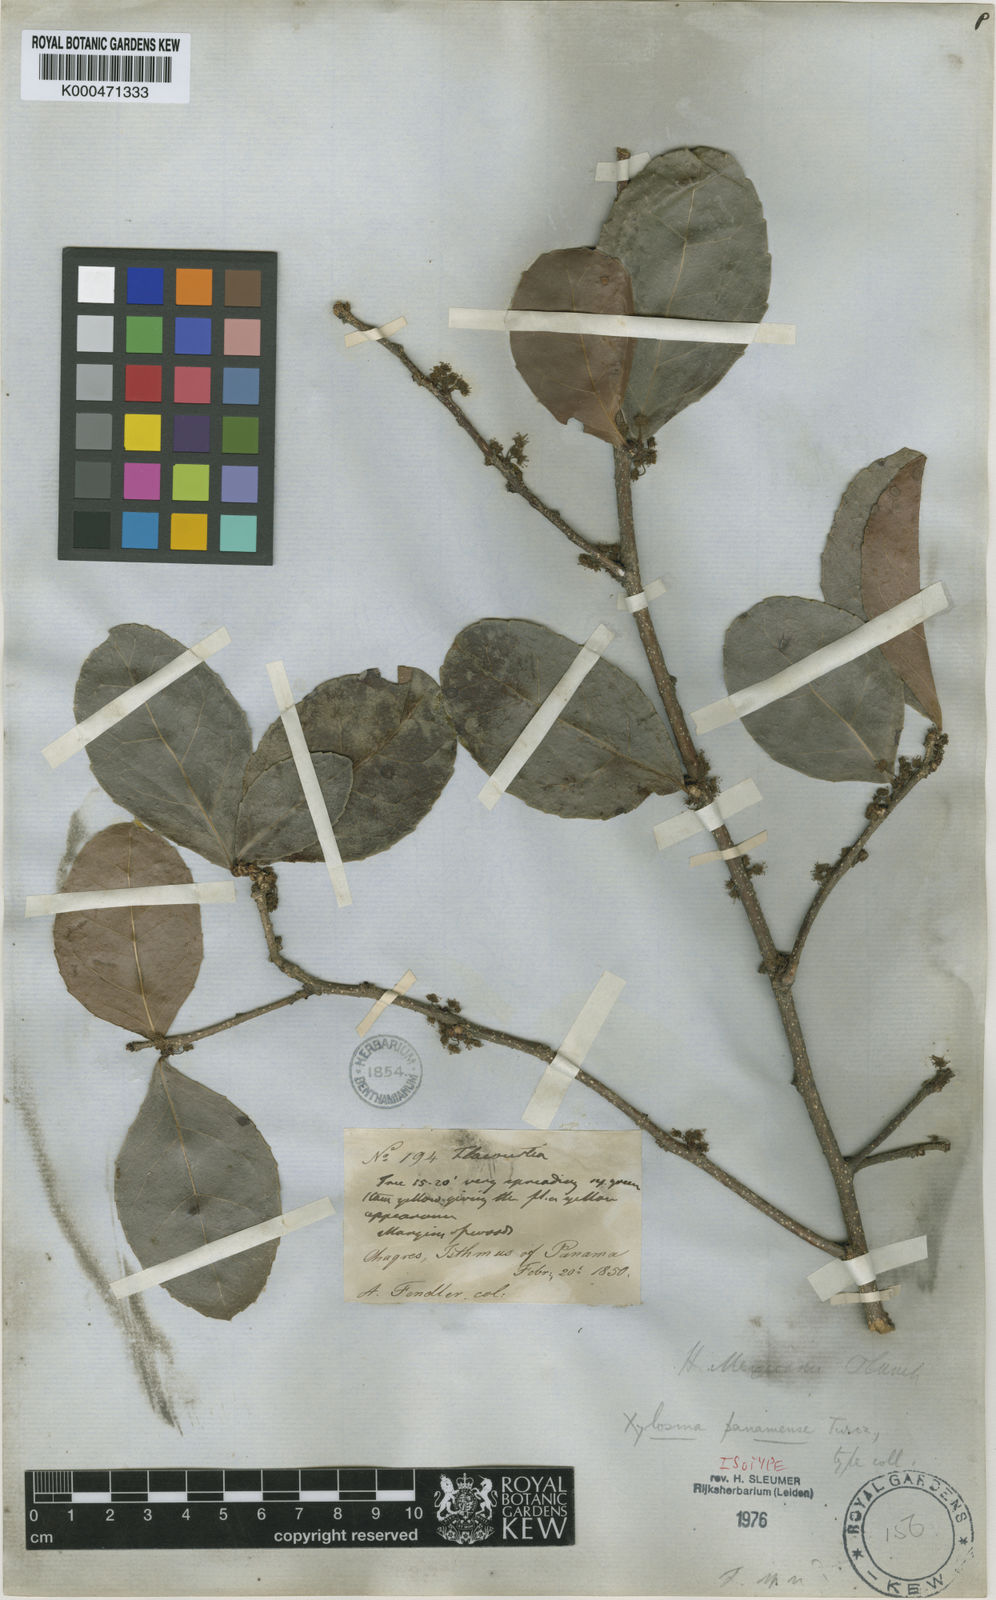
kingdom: Plantae
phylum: Tracheophyta
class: Magnoliopsida
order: Malpighiales
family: Salicaceae
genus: Xylosma
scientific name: Xylosma intermedia
